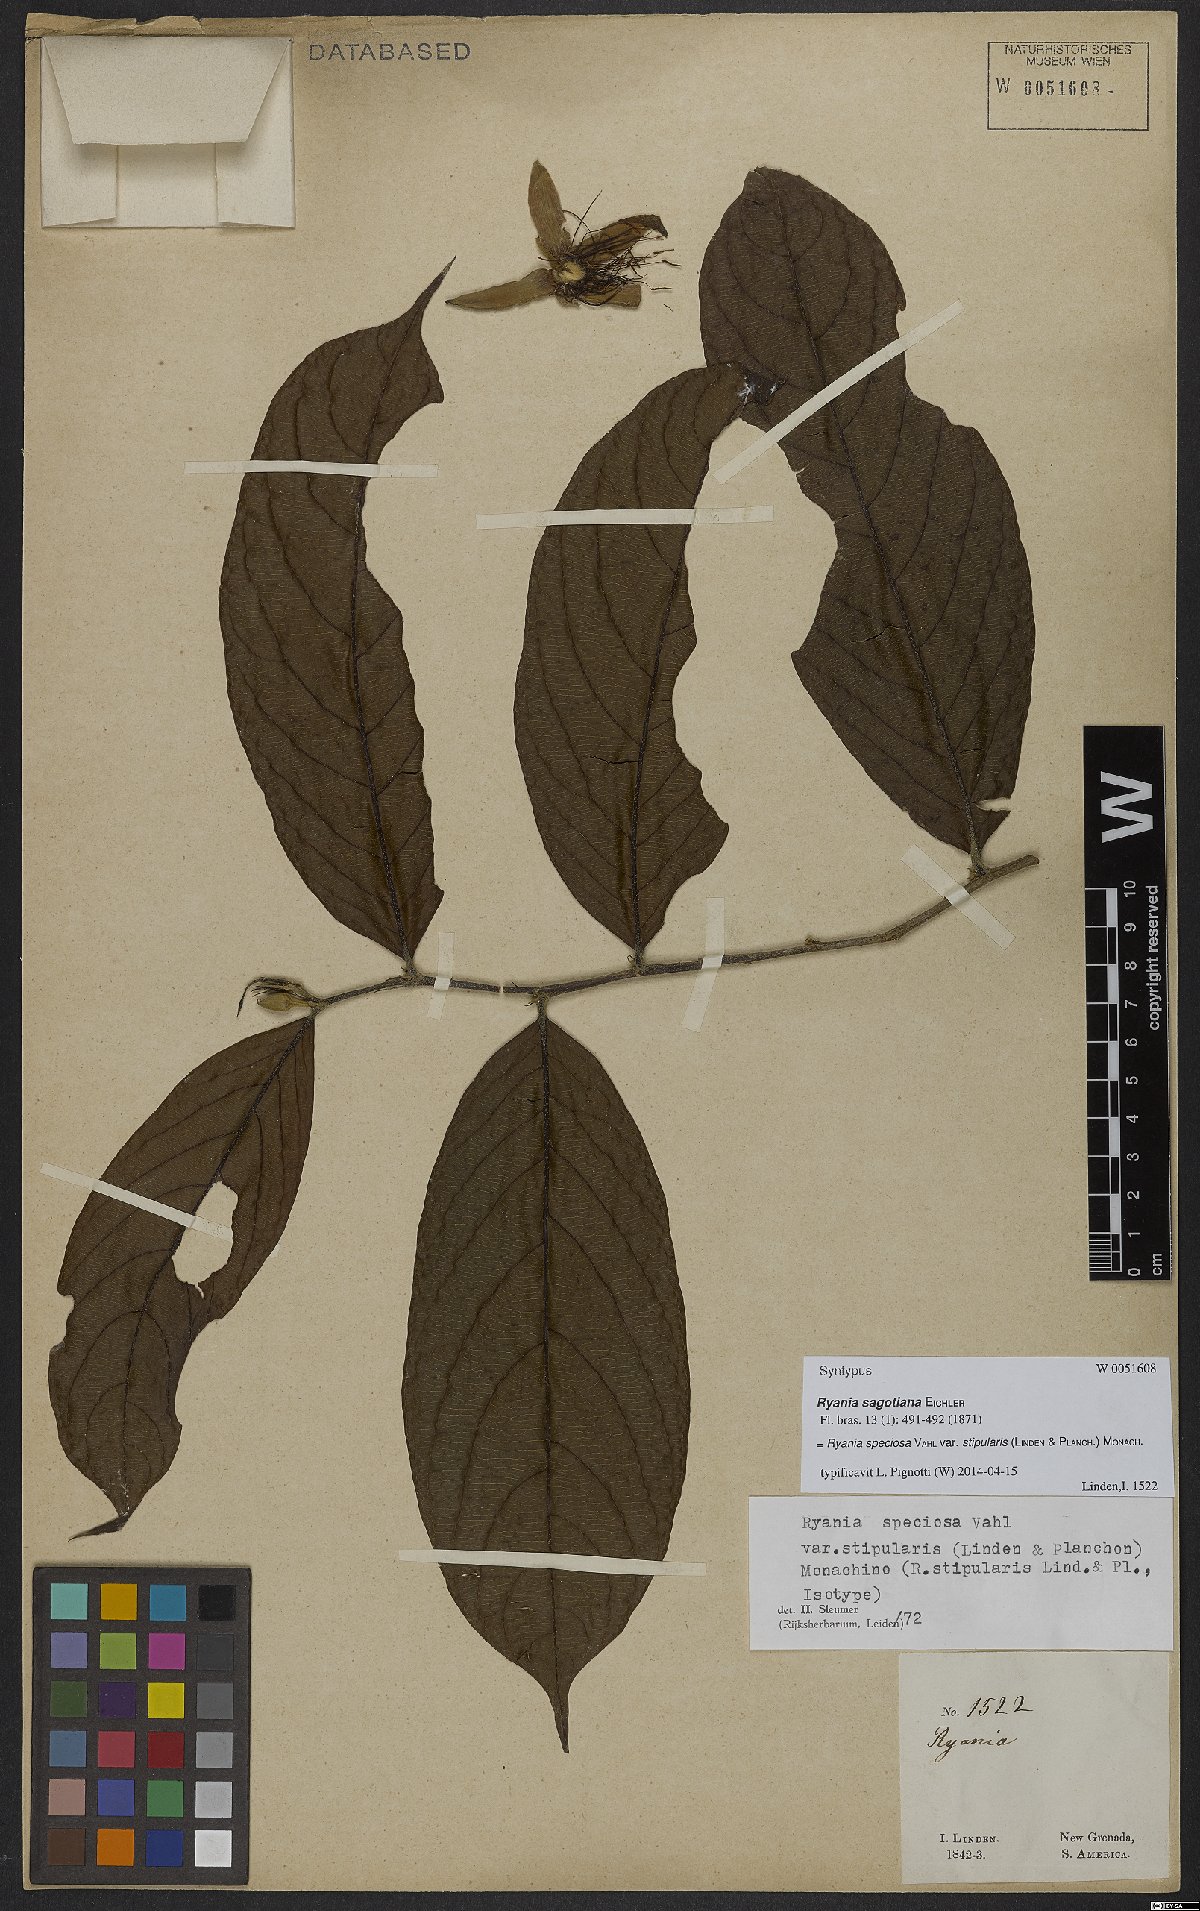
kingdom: Plantae
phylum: Tracheophyta
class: Magnoliopsida
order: Malpighiales
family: Salicaceae
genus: Ryania
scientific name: Ryania speciosa
